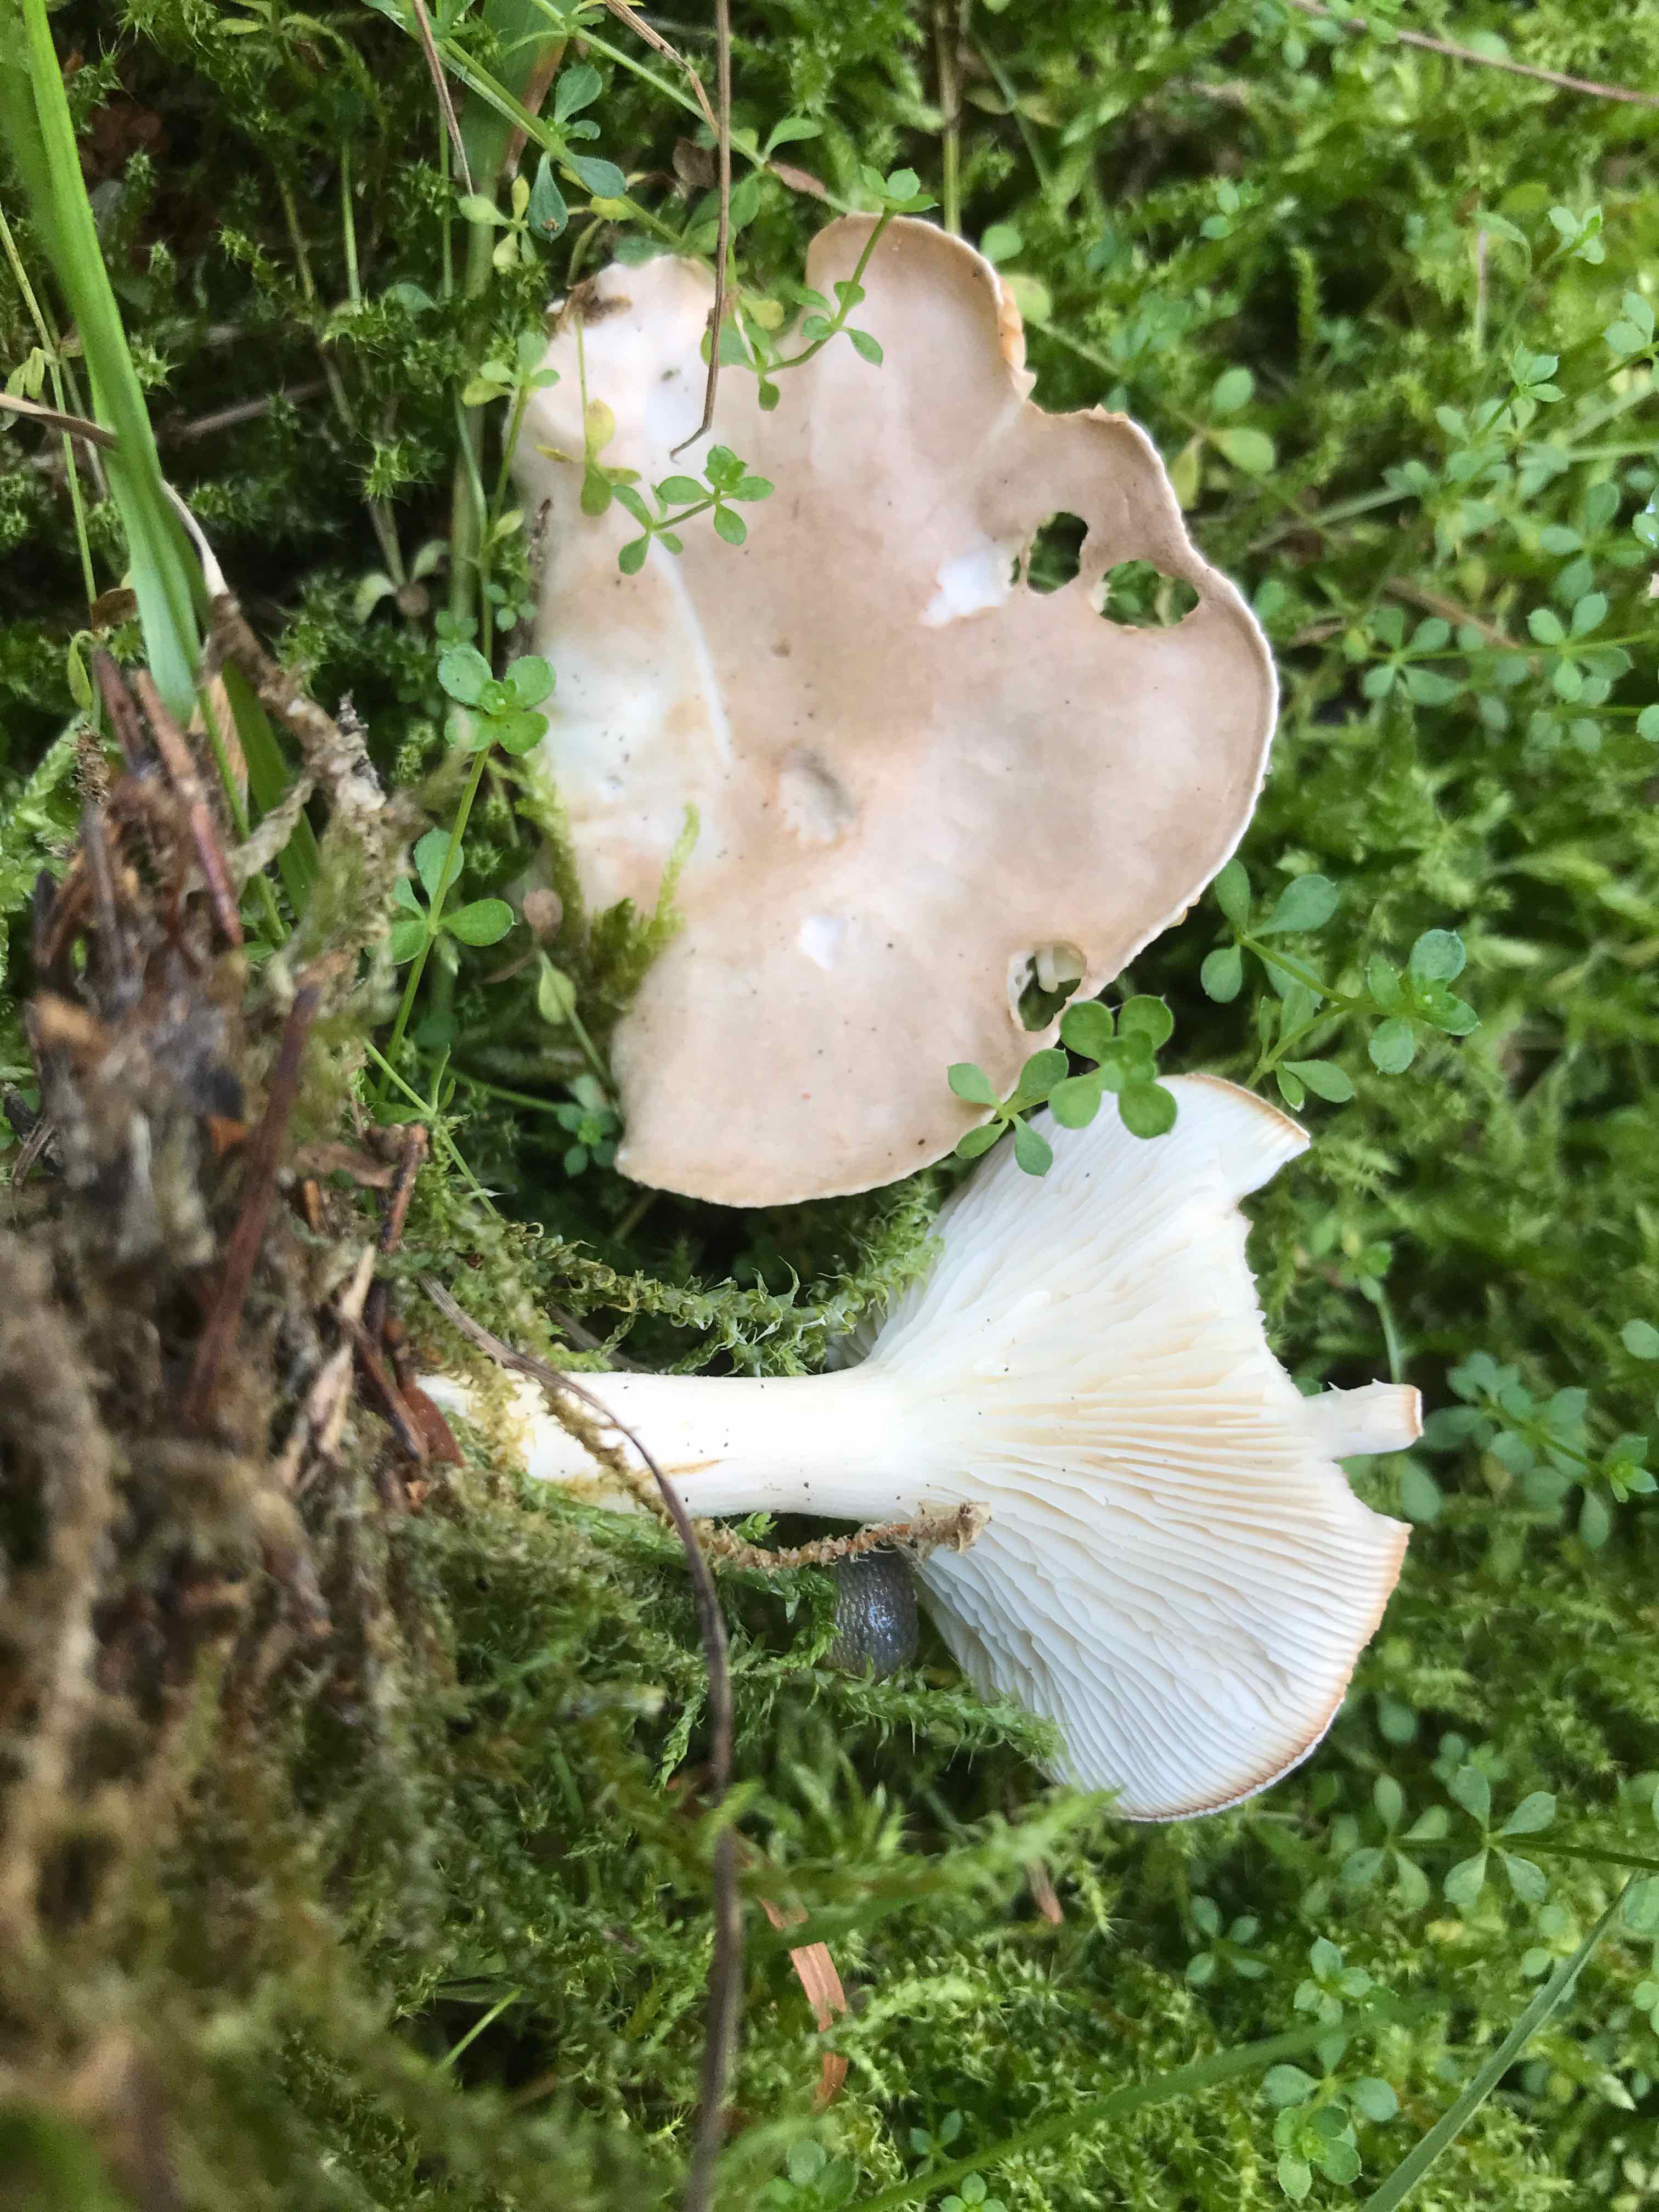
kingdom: Fungi
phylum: Basidiomycota
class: Agaricomycetes
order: Agaricales
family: Tricholomataceae
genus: Infundibulicybe
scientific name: Infundibulicybe gibba
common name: almindelig tragthat
